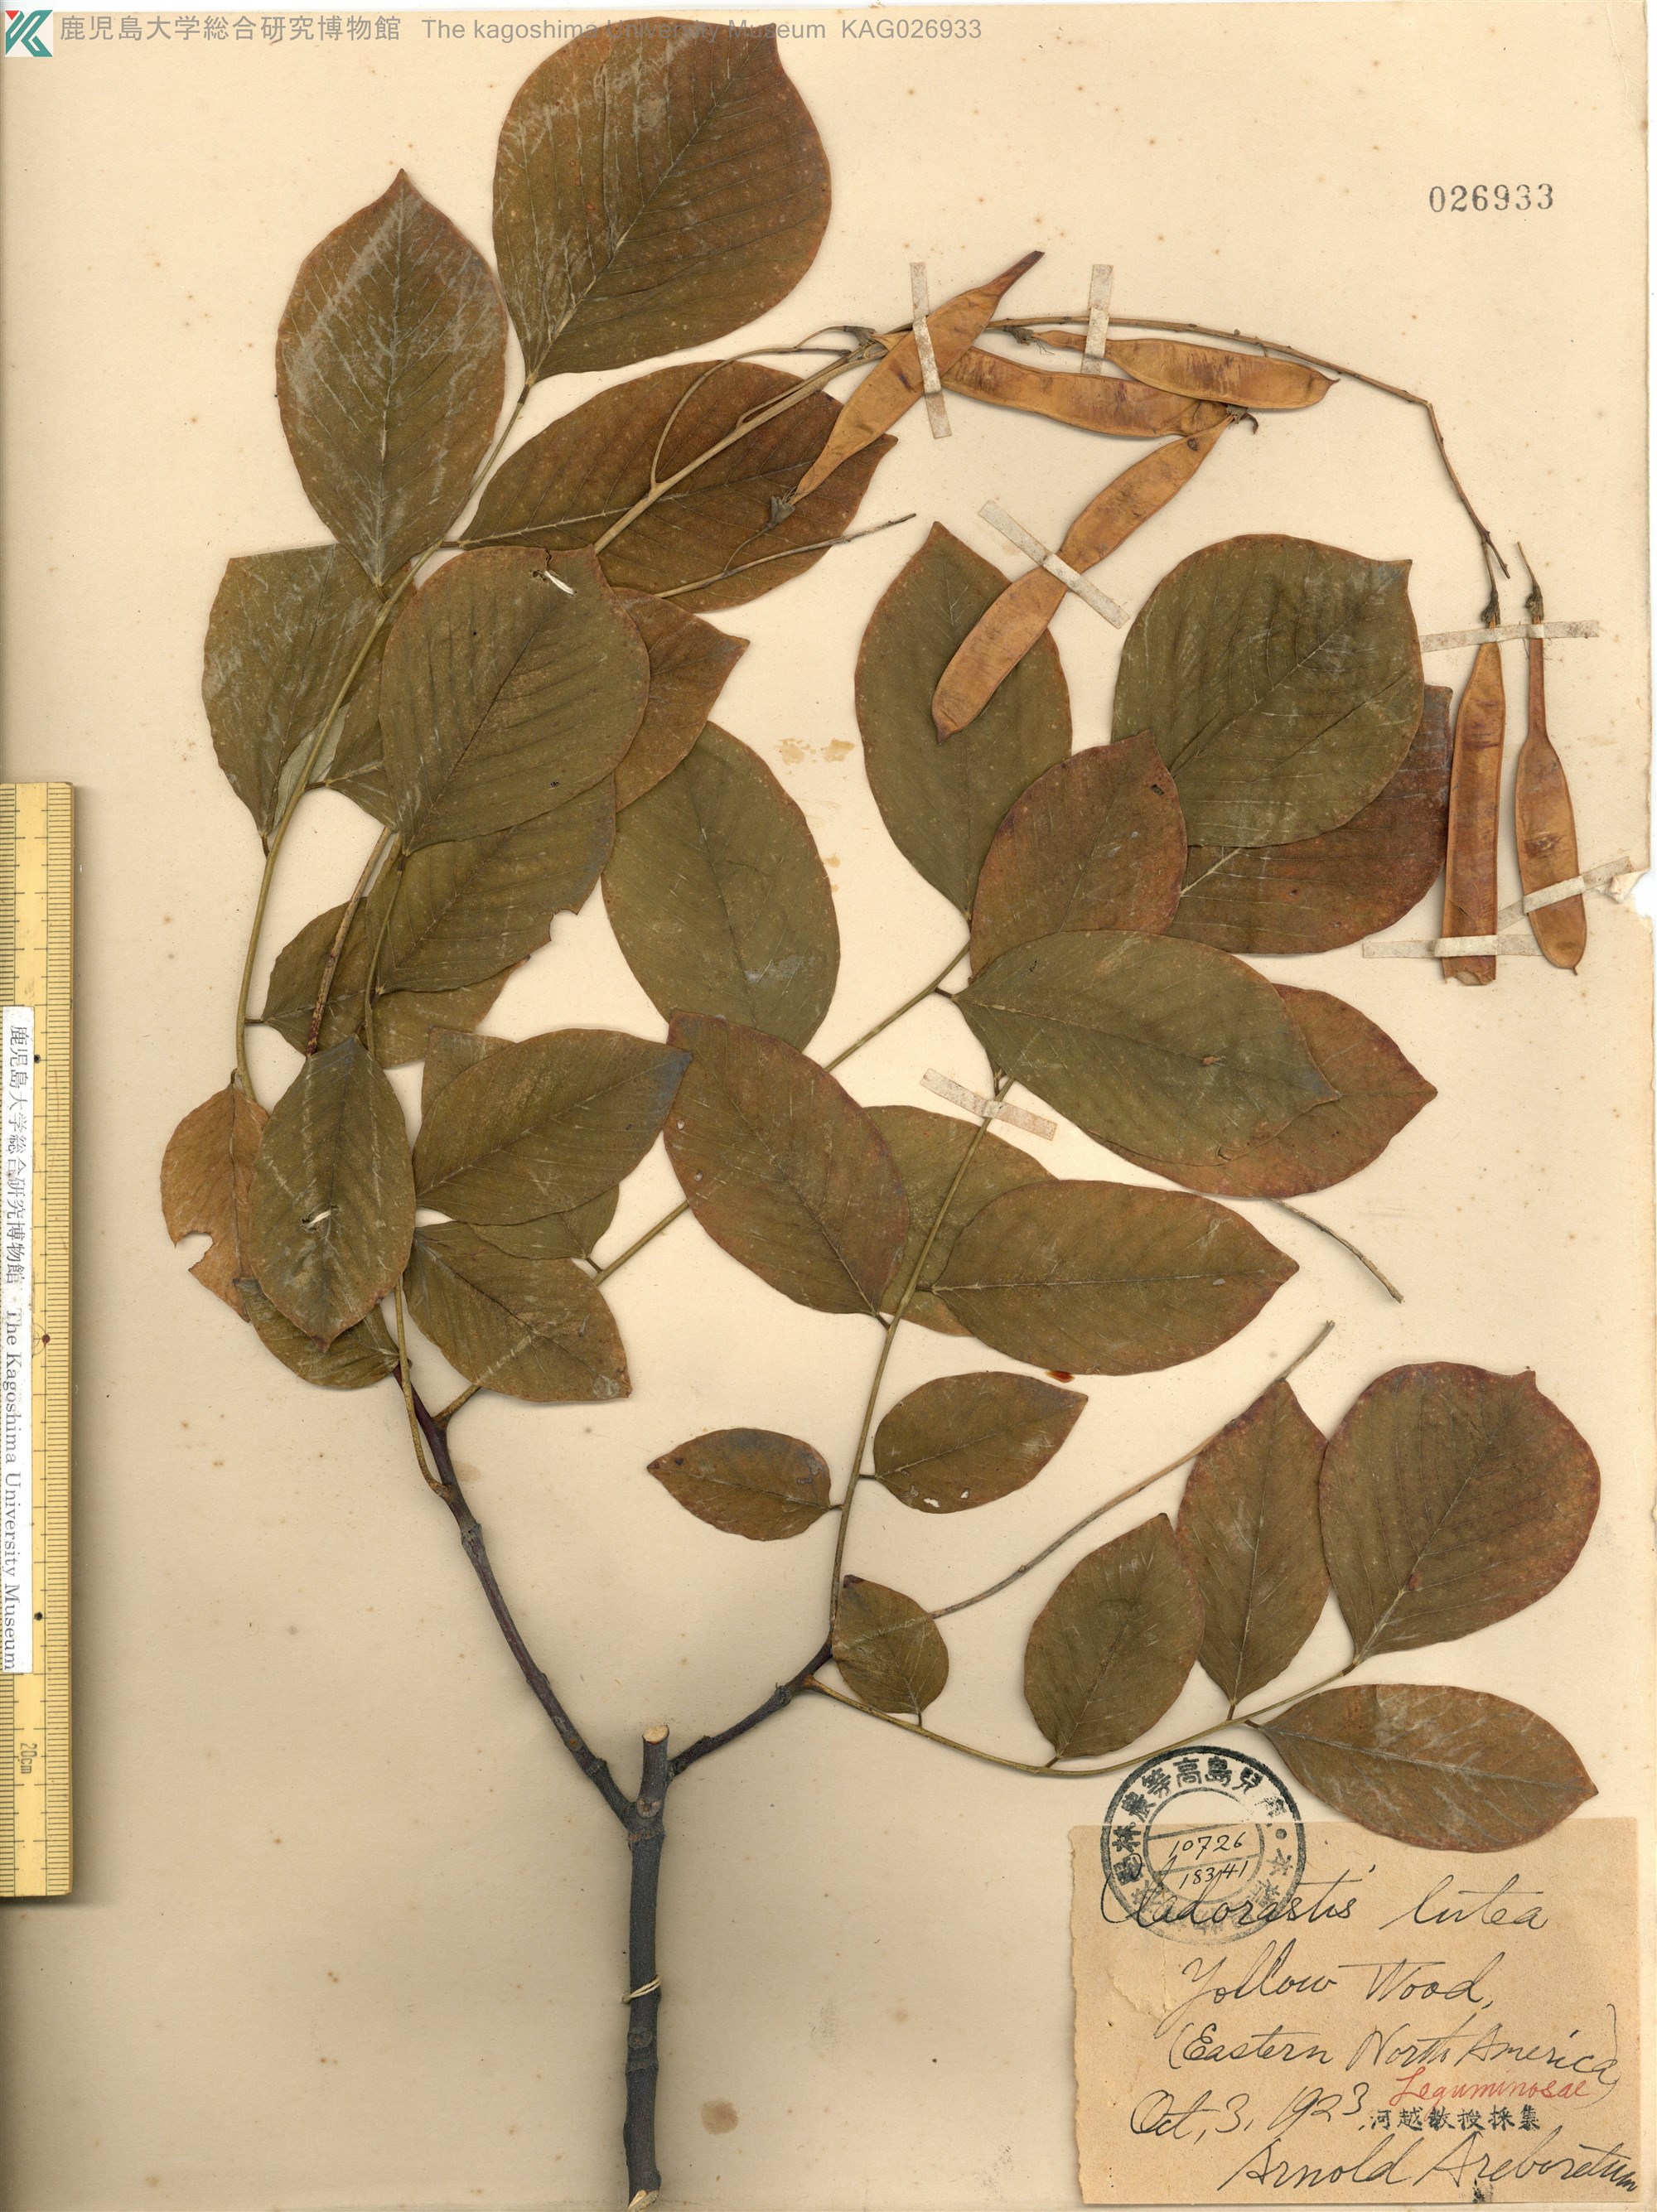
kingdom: Plantae
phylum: Tracheophyta
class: Magnoliopsida
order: Fabales
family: Fabaceae
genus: Cladrastis
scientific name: Cladrastis kentukea
